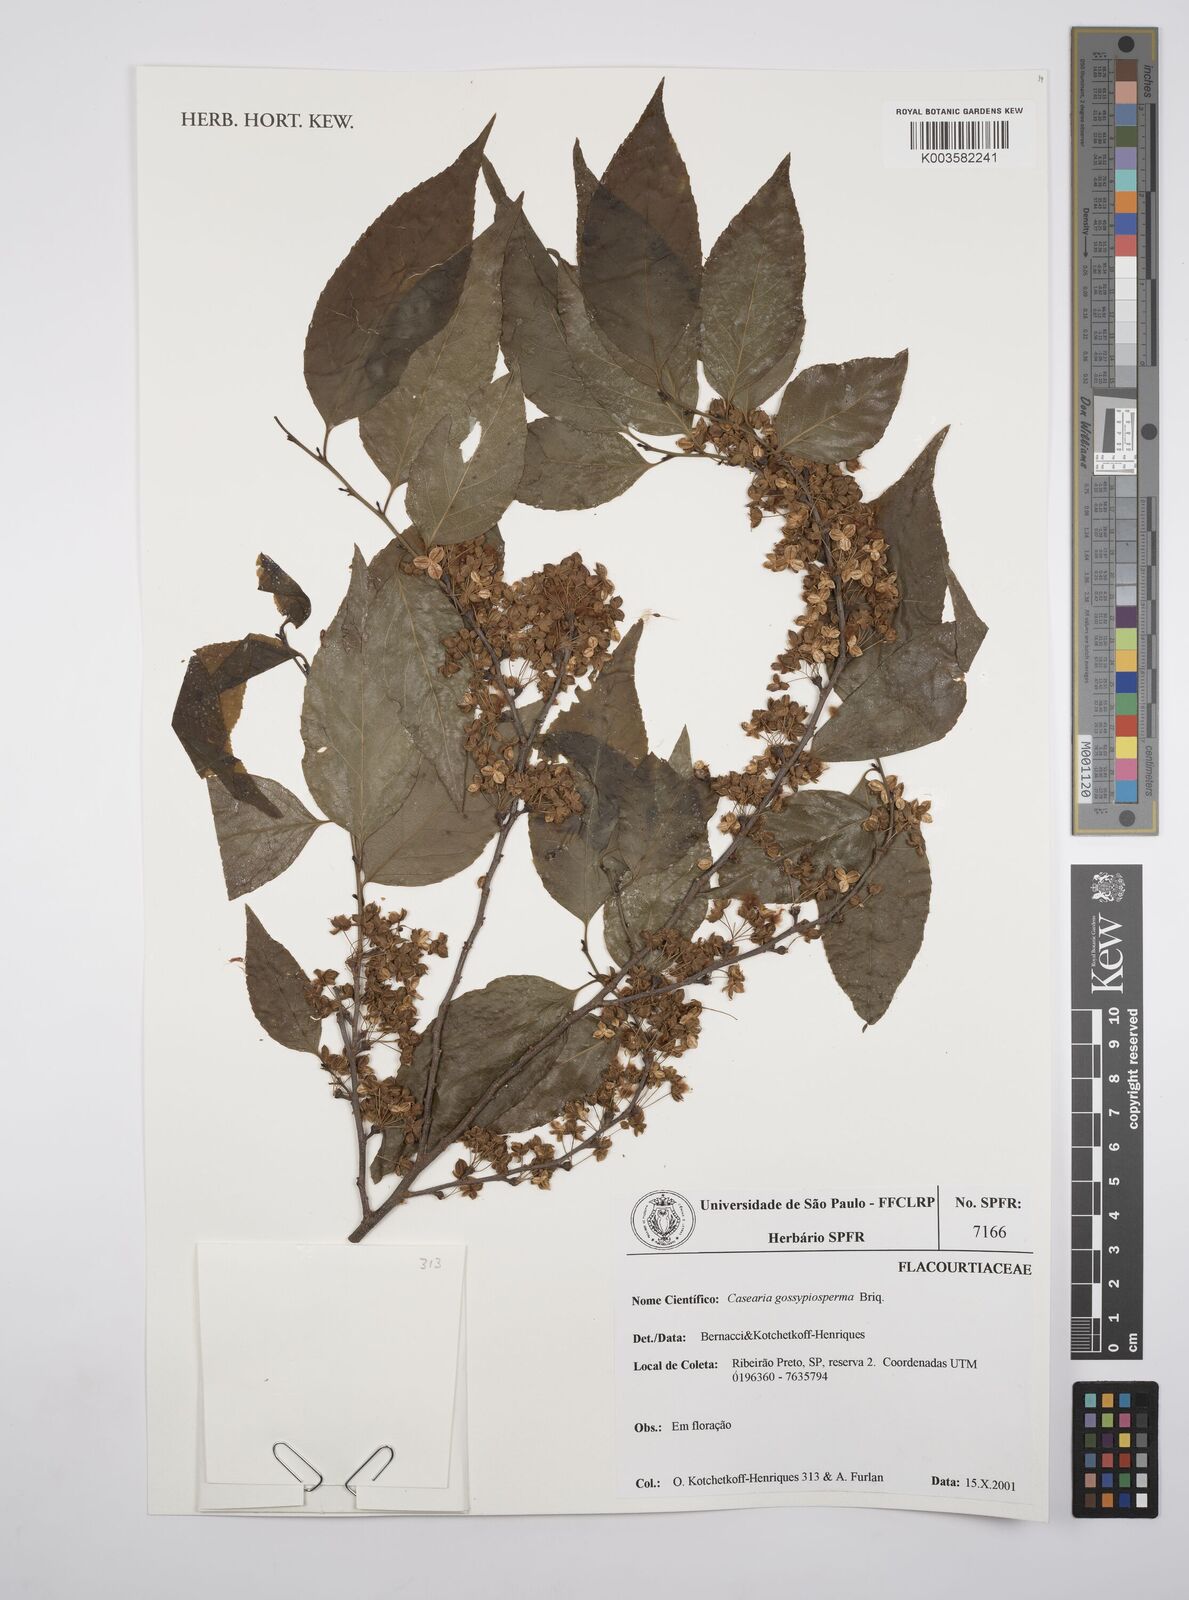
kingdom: Plantae
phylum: Tracheophyta
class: Magnoliopsida
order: Malpighiales
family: Salicaceae
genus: Casearia
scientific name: Casearia gossypiosperma
